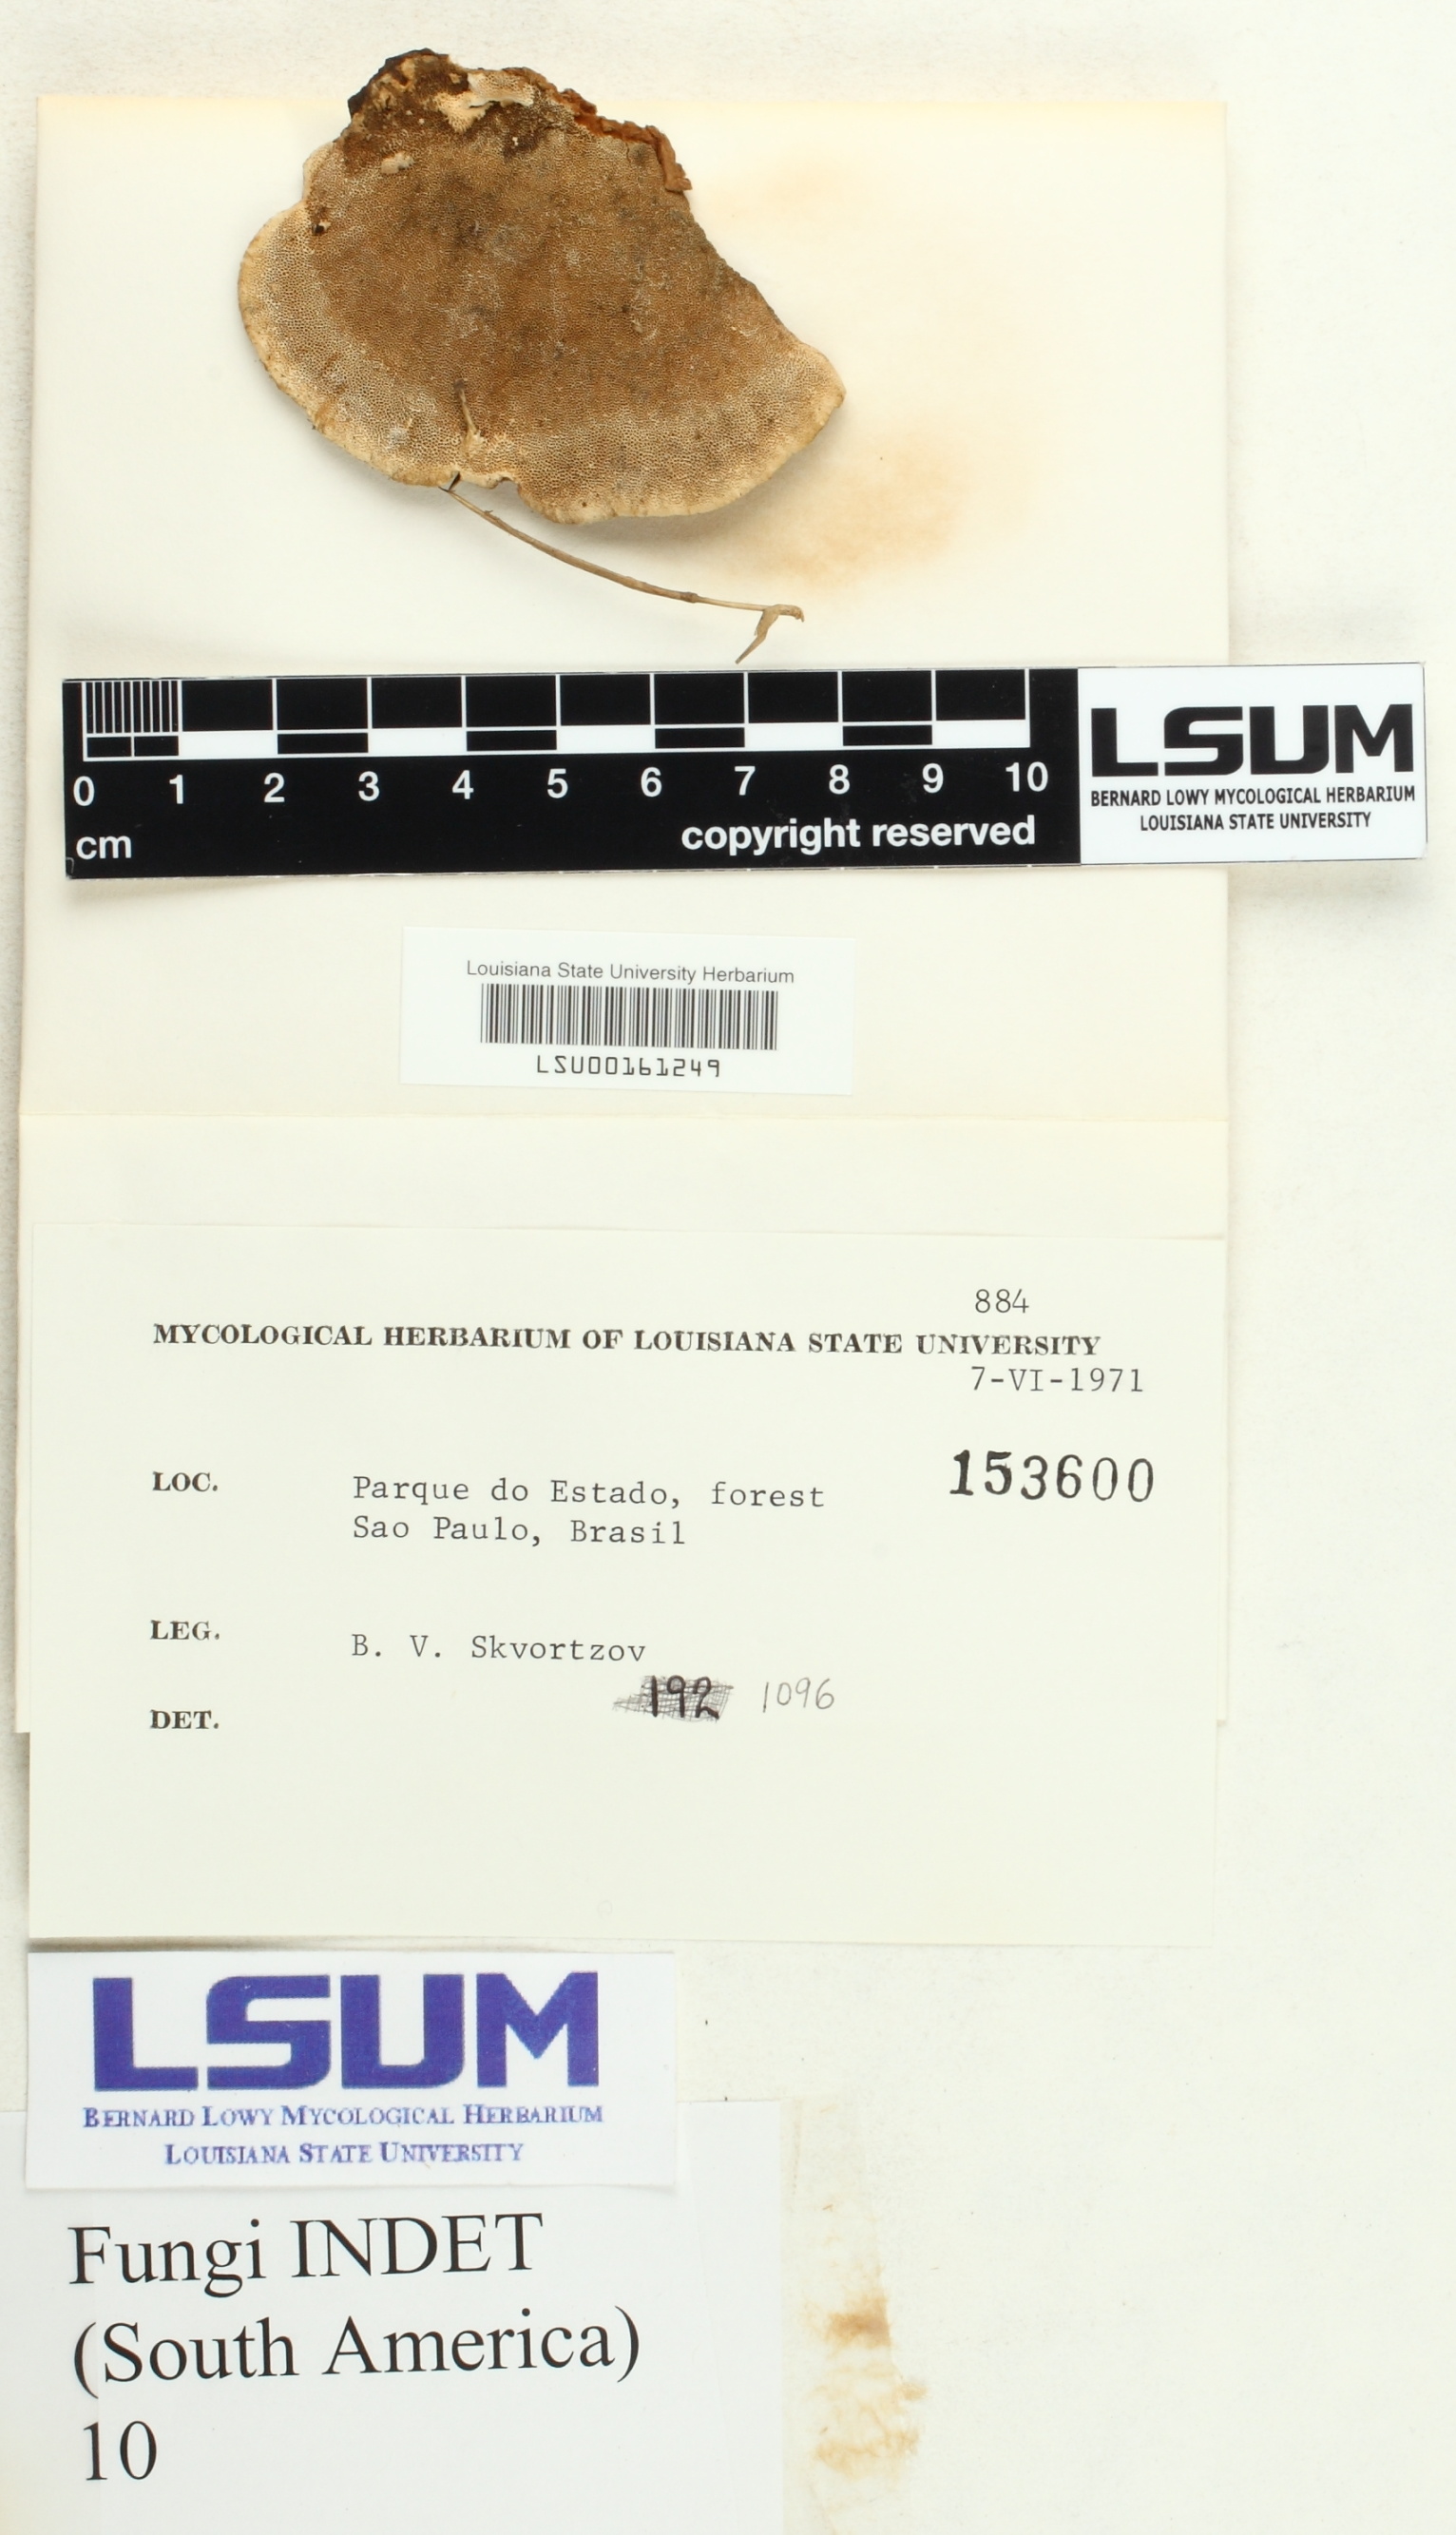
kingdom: Fungi
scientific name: Fungi
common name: Fungi
